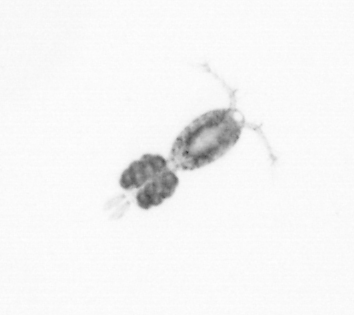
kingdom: Animalia
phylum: Arthropoda
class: Copepoda
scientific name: Copepoda
